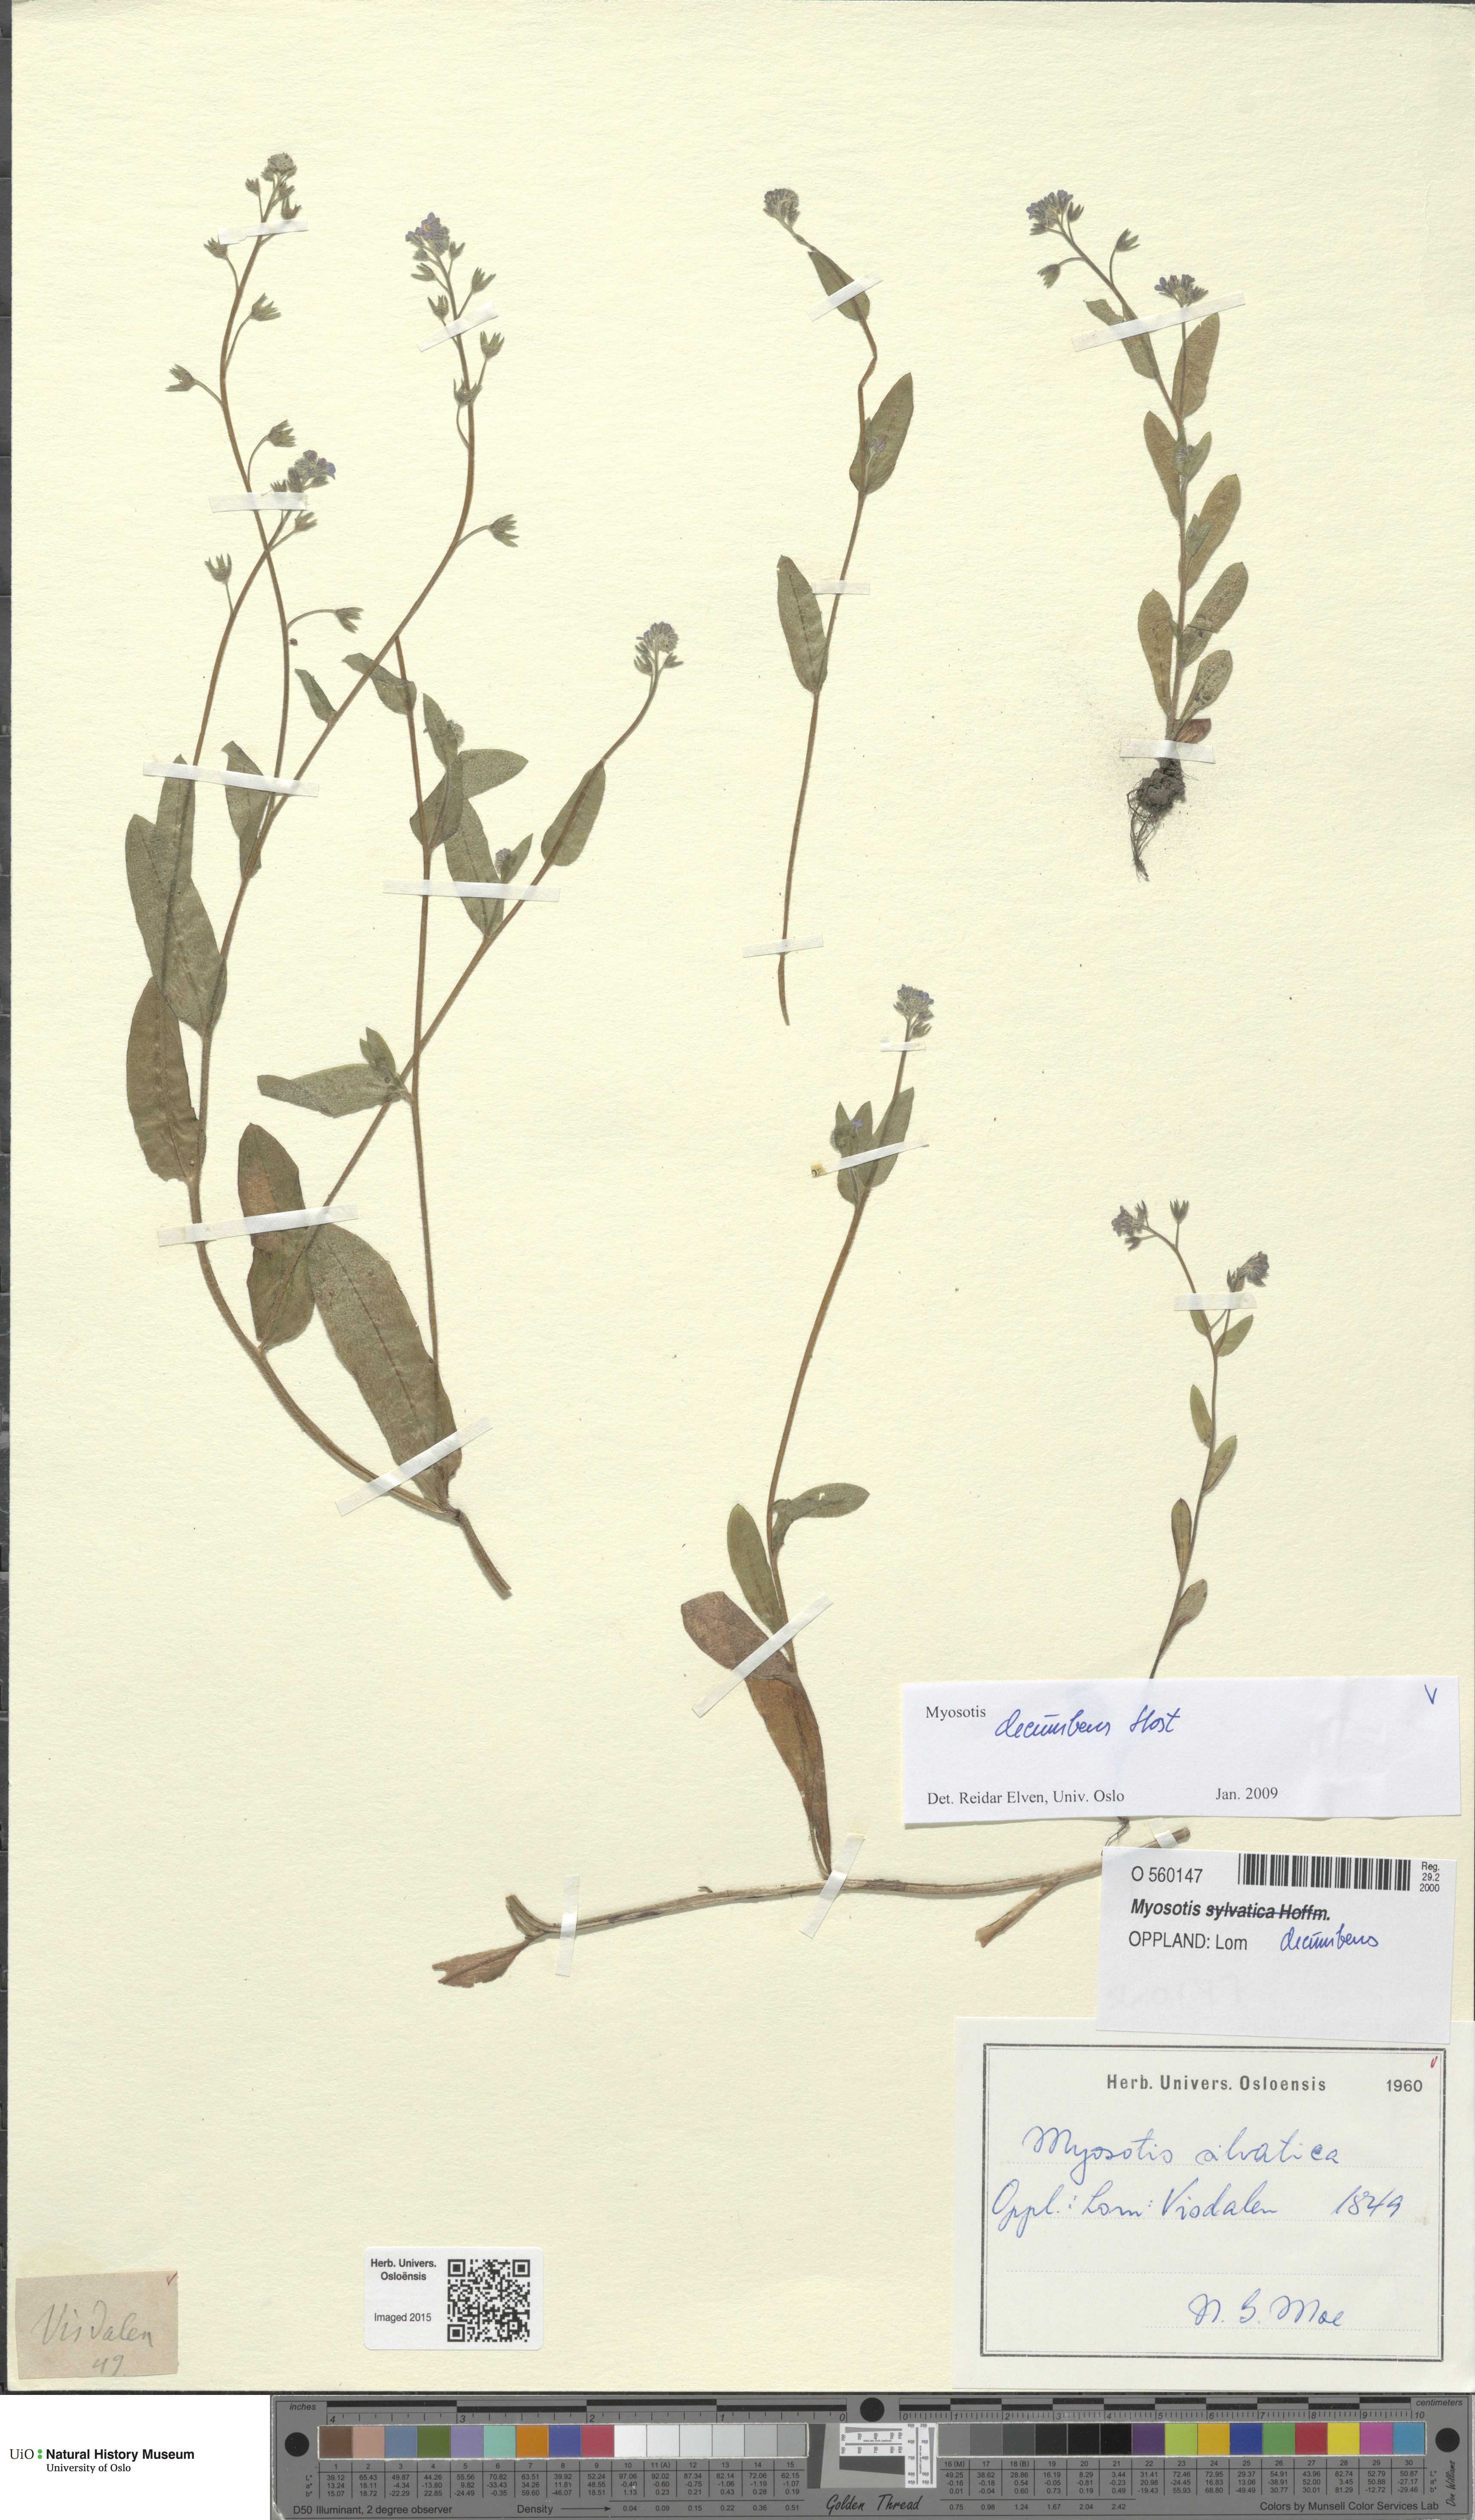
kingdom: Plantae
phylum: Tracheophyta
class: Magnoliopsida
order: Boraginales
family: Boraginaceae
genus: Myosotis
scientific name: Myosotis decumbens
